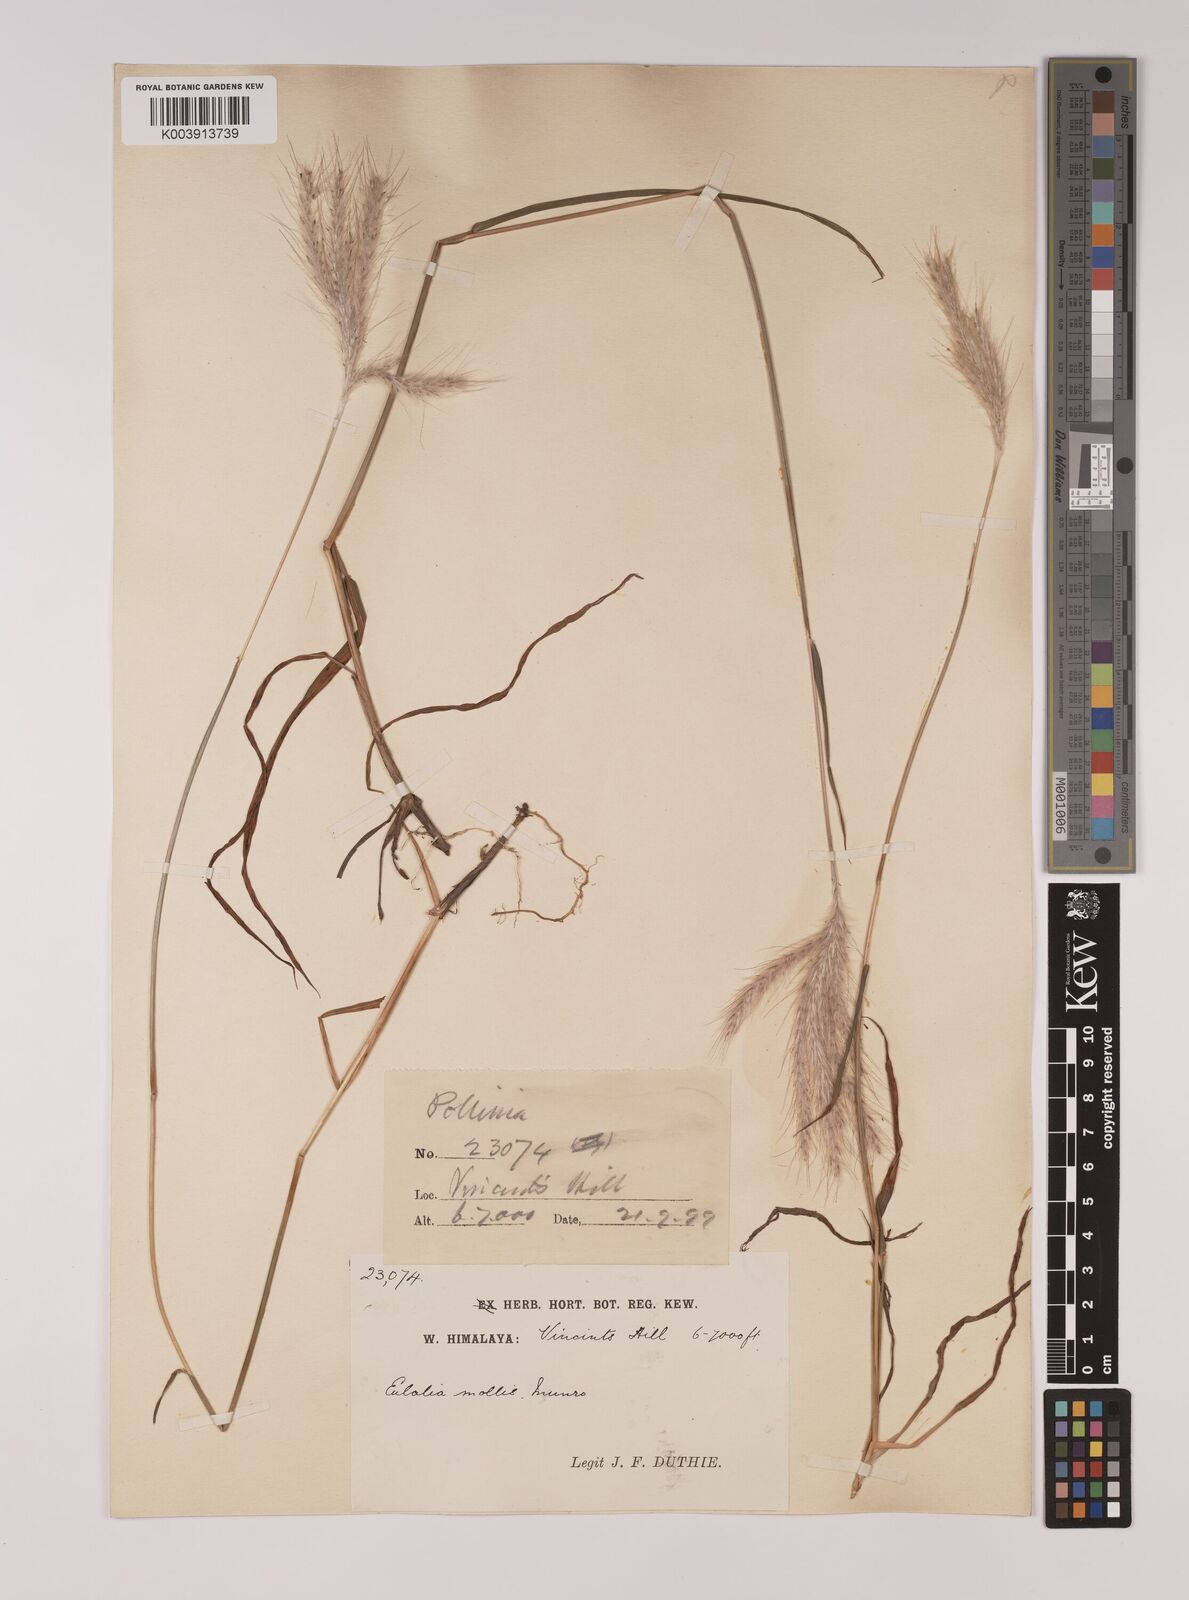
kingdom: Plantae
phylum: Tracheophyta
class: Liliopsida
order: Poales
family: Poaceae
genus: Eulalia
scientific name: Eulalia mollis
